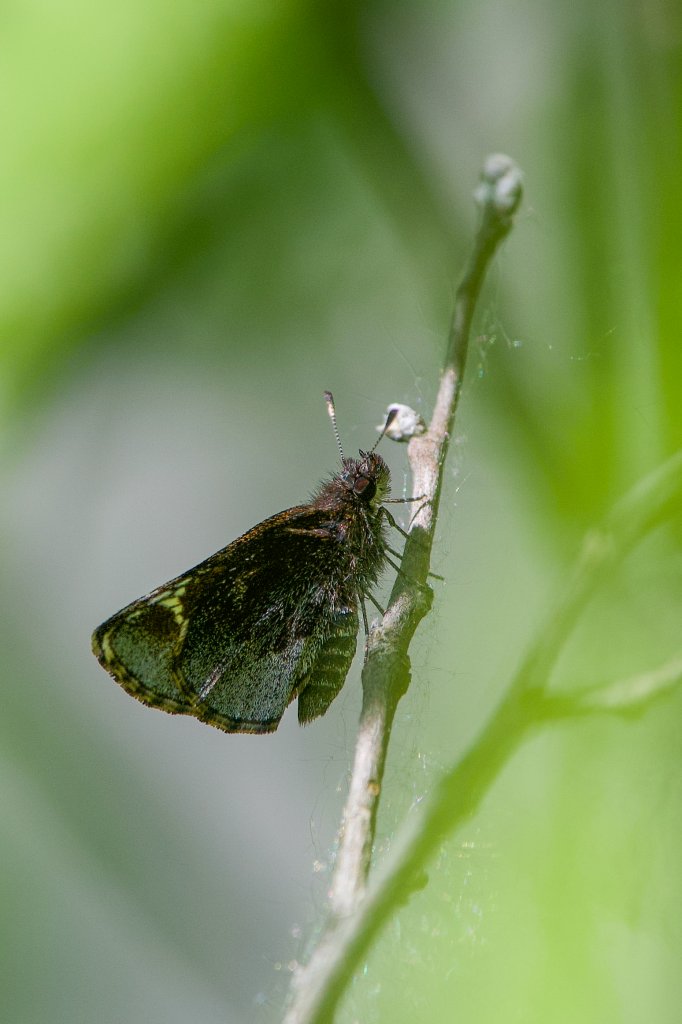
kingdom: Animalia
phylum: Arthropoda
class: Insecta
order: Lepidoptera
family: Hesperiidae
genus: Mastor
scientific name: Mastor vialis
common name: Common Roadside-Skipper
